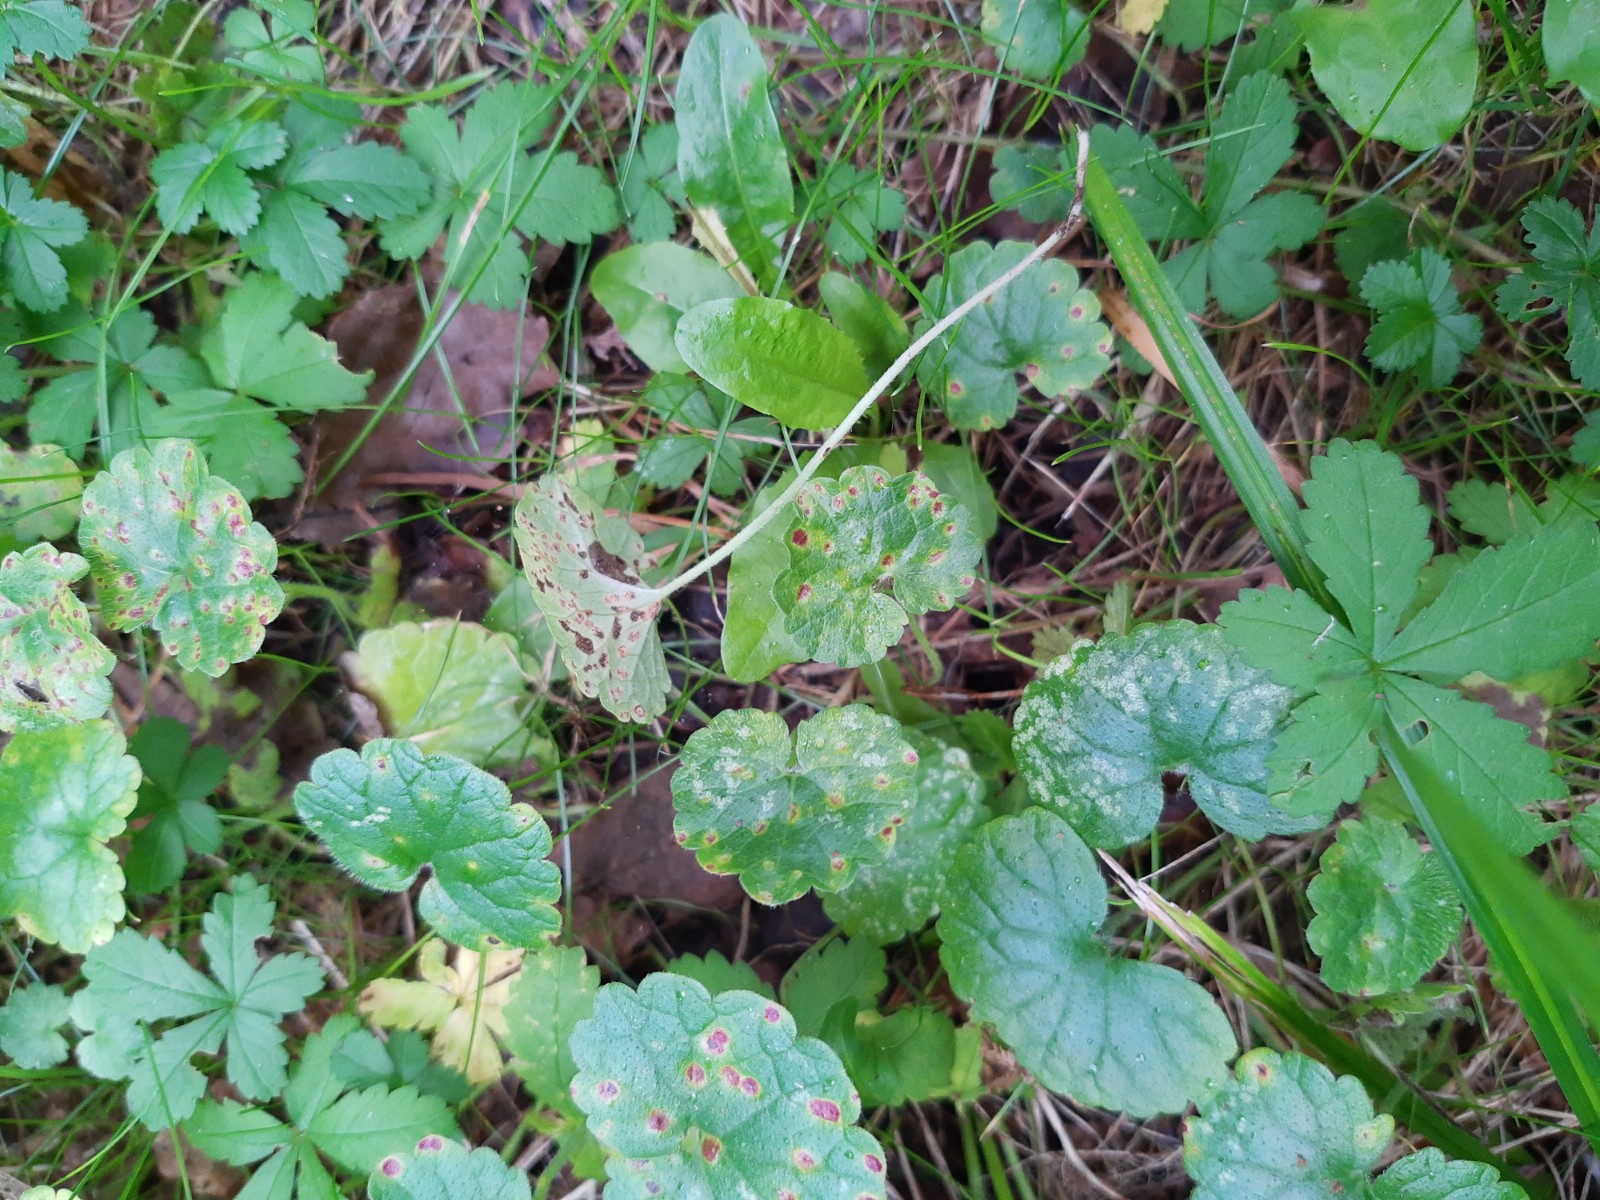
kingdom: Fungi
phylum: Basidiomycota
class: Pucciniomycetes
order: Pucciniales
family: Pucciniaceae
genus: Puccinia
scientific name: Puccinia glechomatis
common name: Ground ivy rust
